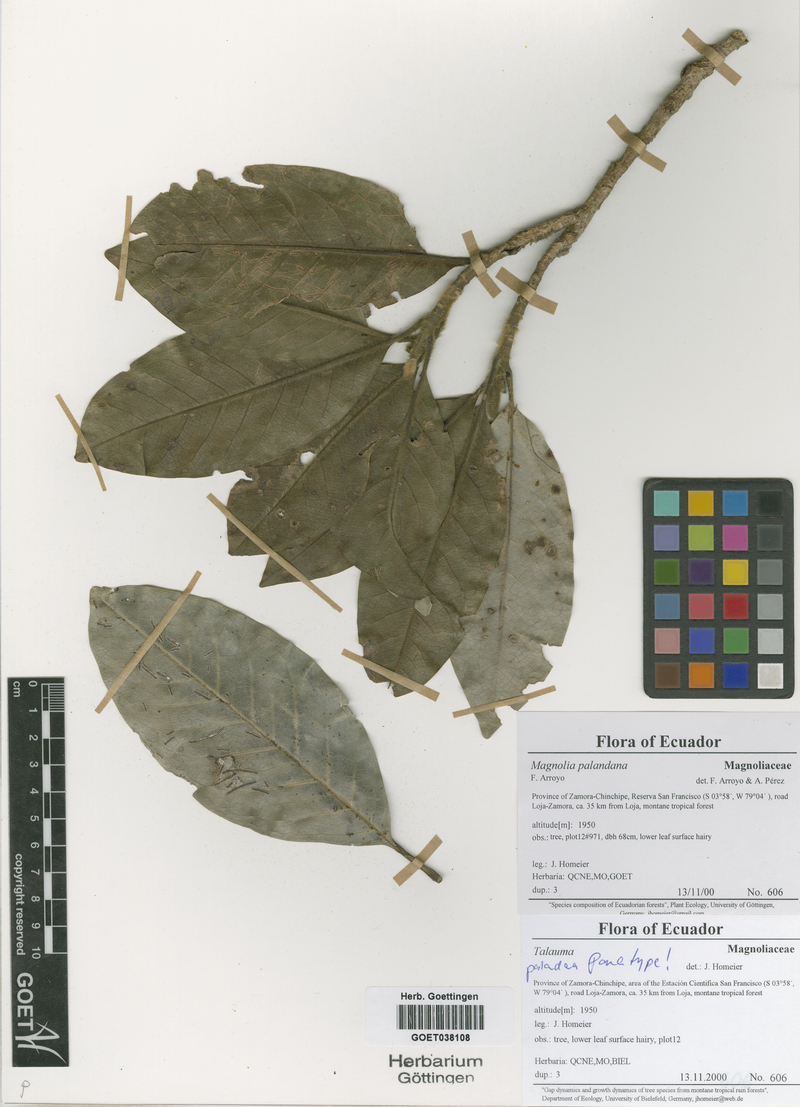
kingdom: Plantae
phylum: Tracheophyta
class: Magnoliopsida
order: Magnoliales
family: Magnoliaceae
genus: Magnolia
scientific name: Magnolia palandana
